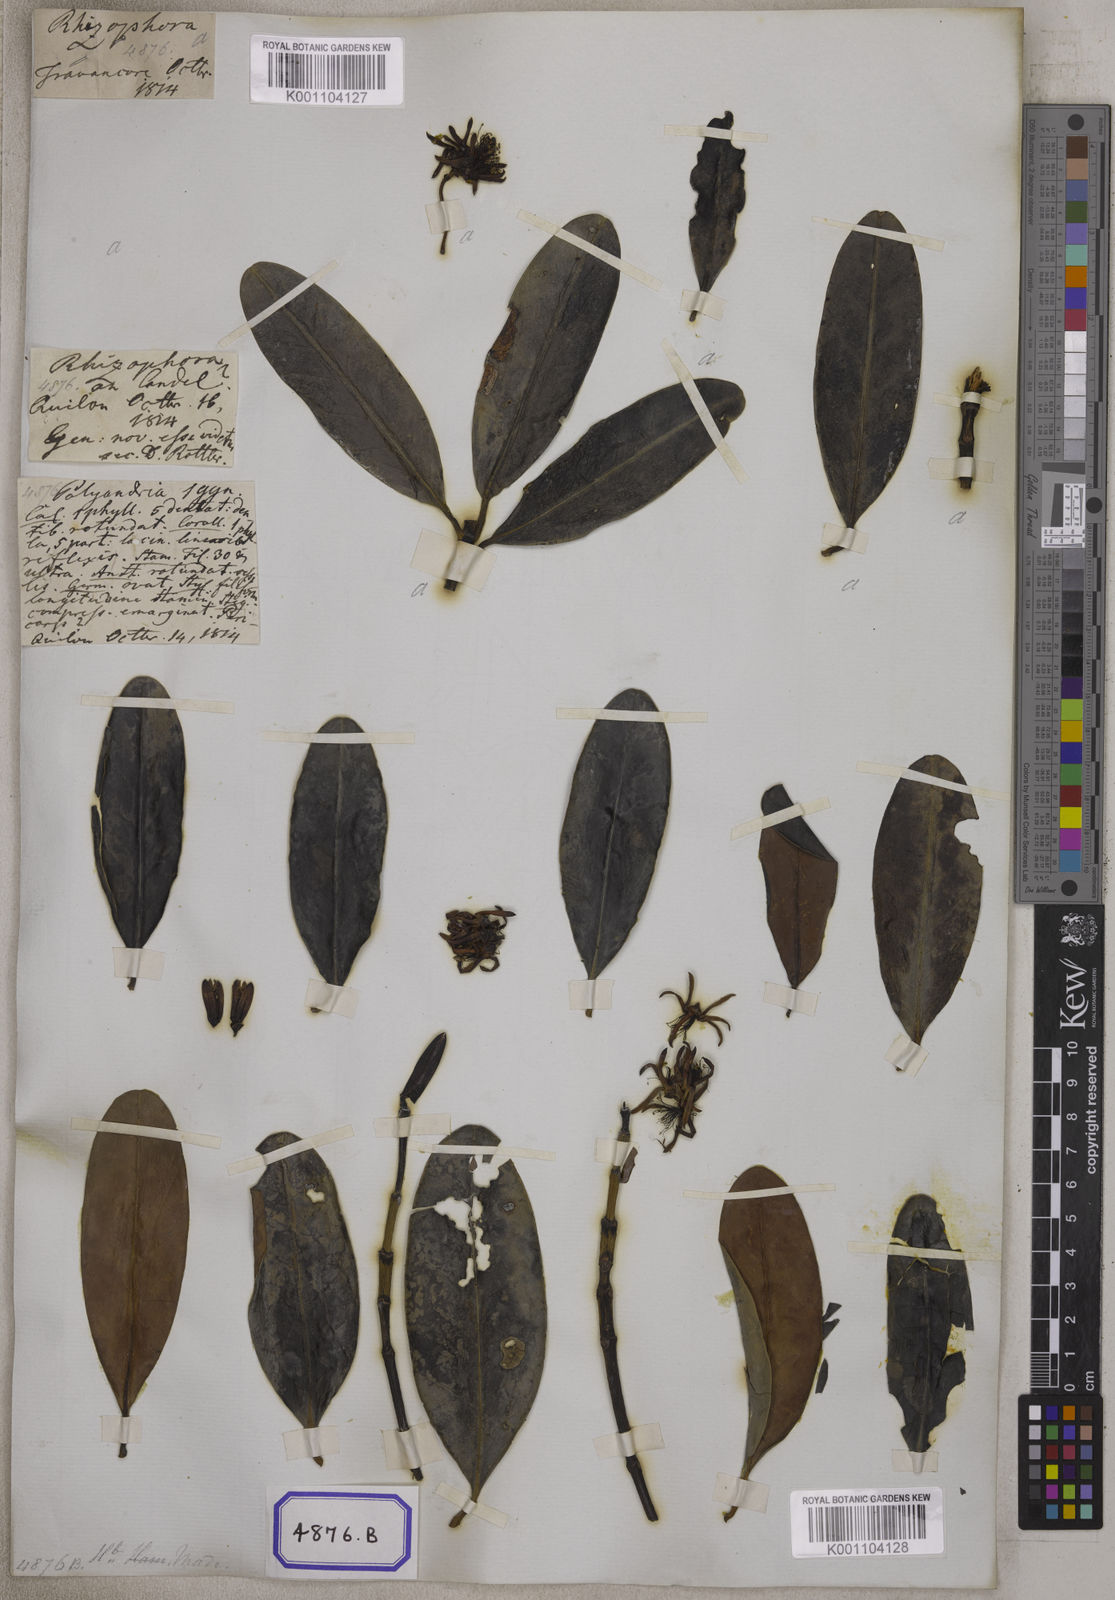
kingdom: Plantae
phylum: Tracheophyta
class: Magnoliopsida
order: Malpighiales
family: Rhizophoraceae
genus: Kandelia
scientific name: Kandelia candel
